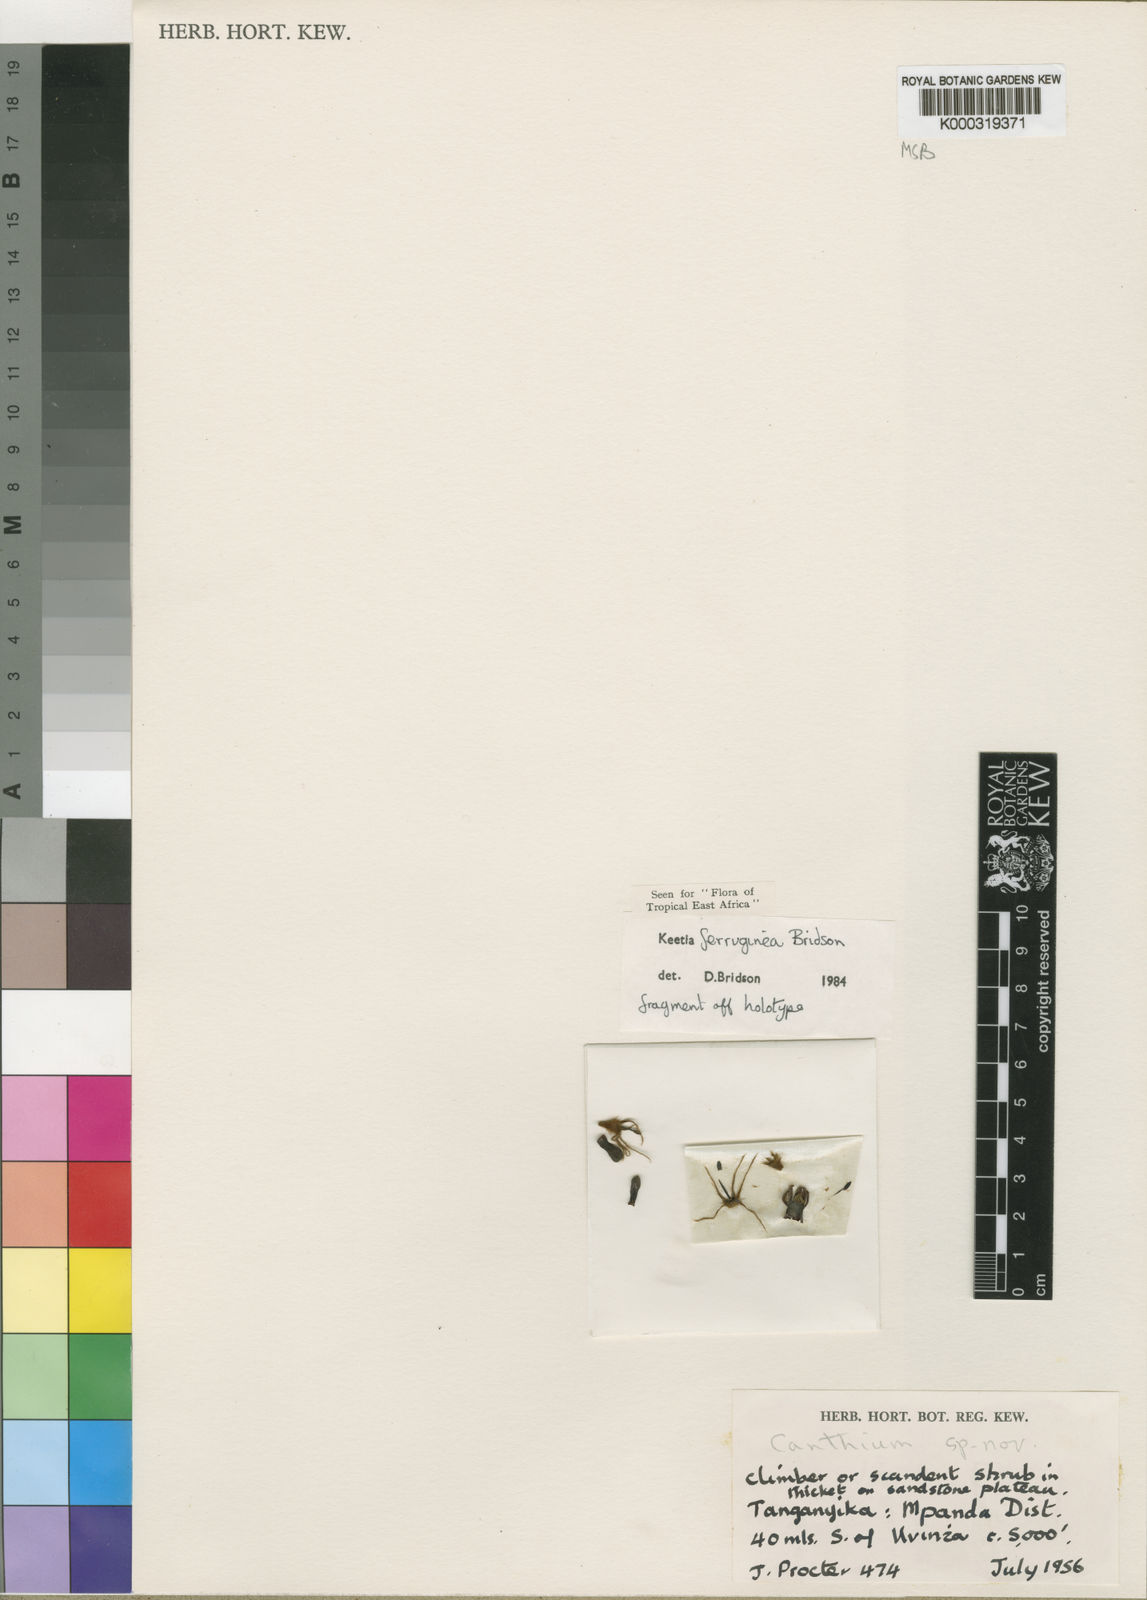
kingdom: Plantae
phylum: Tracheophyta
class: Magnoliopsida
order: Gentianales
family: Rubiaceae
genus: Keetia
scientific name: Keetia ferruginea
